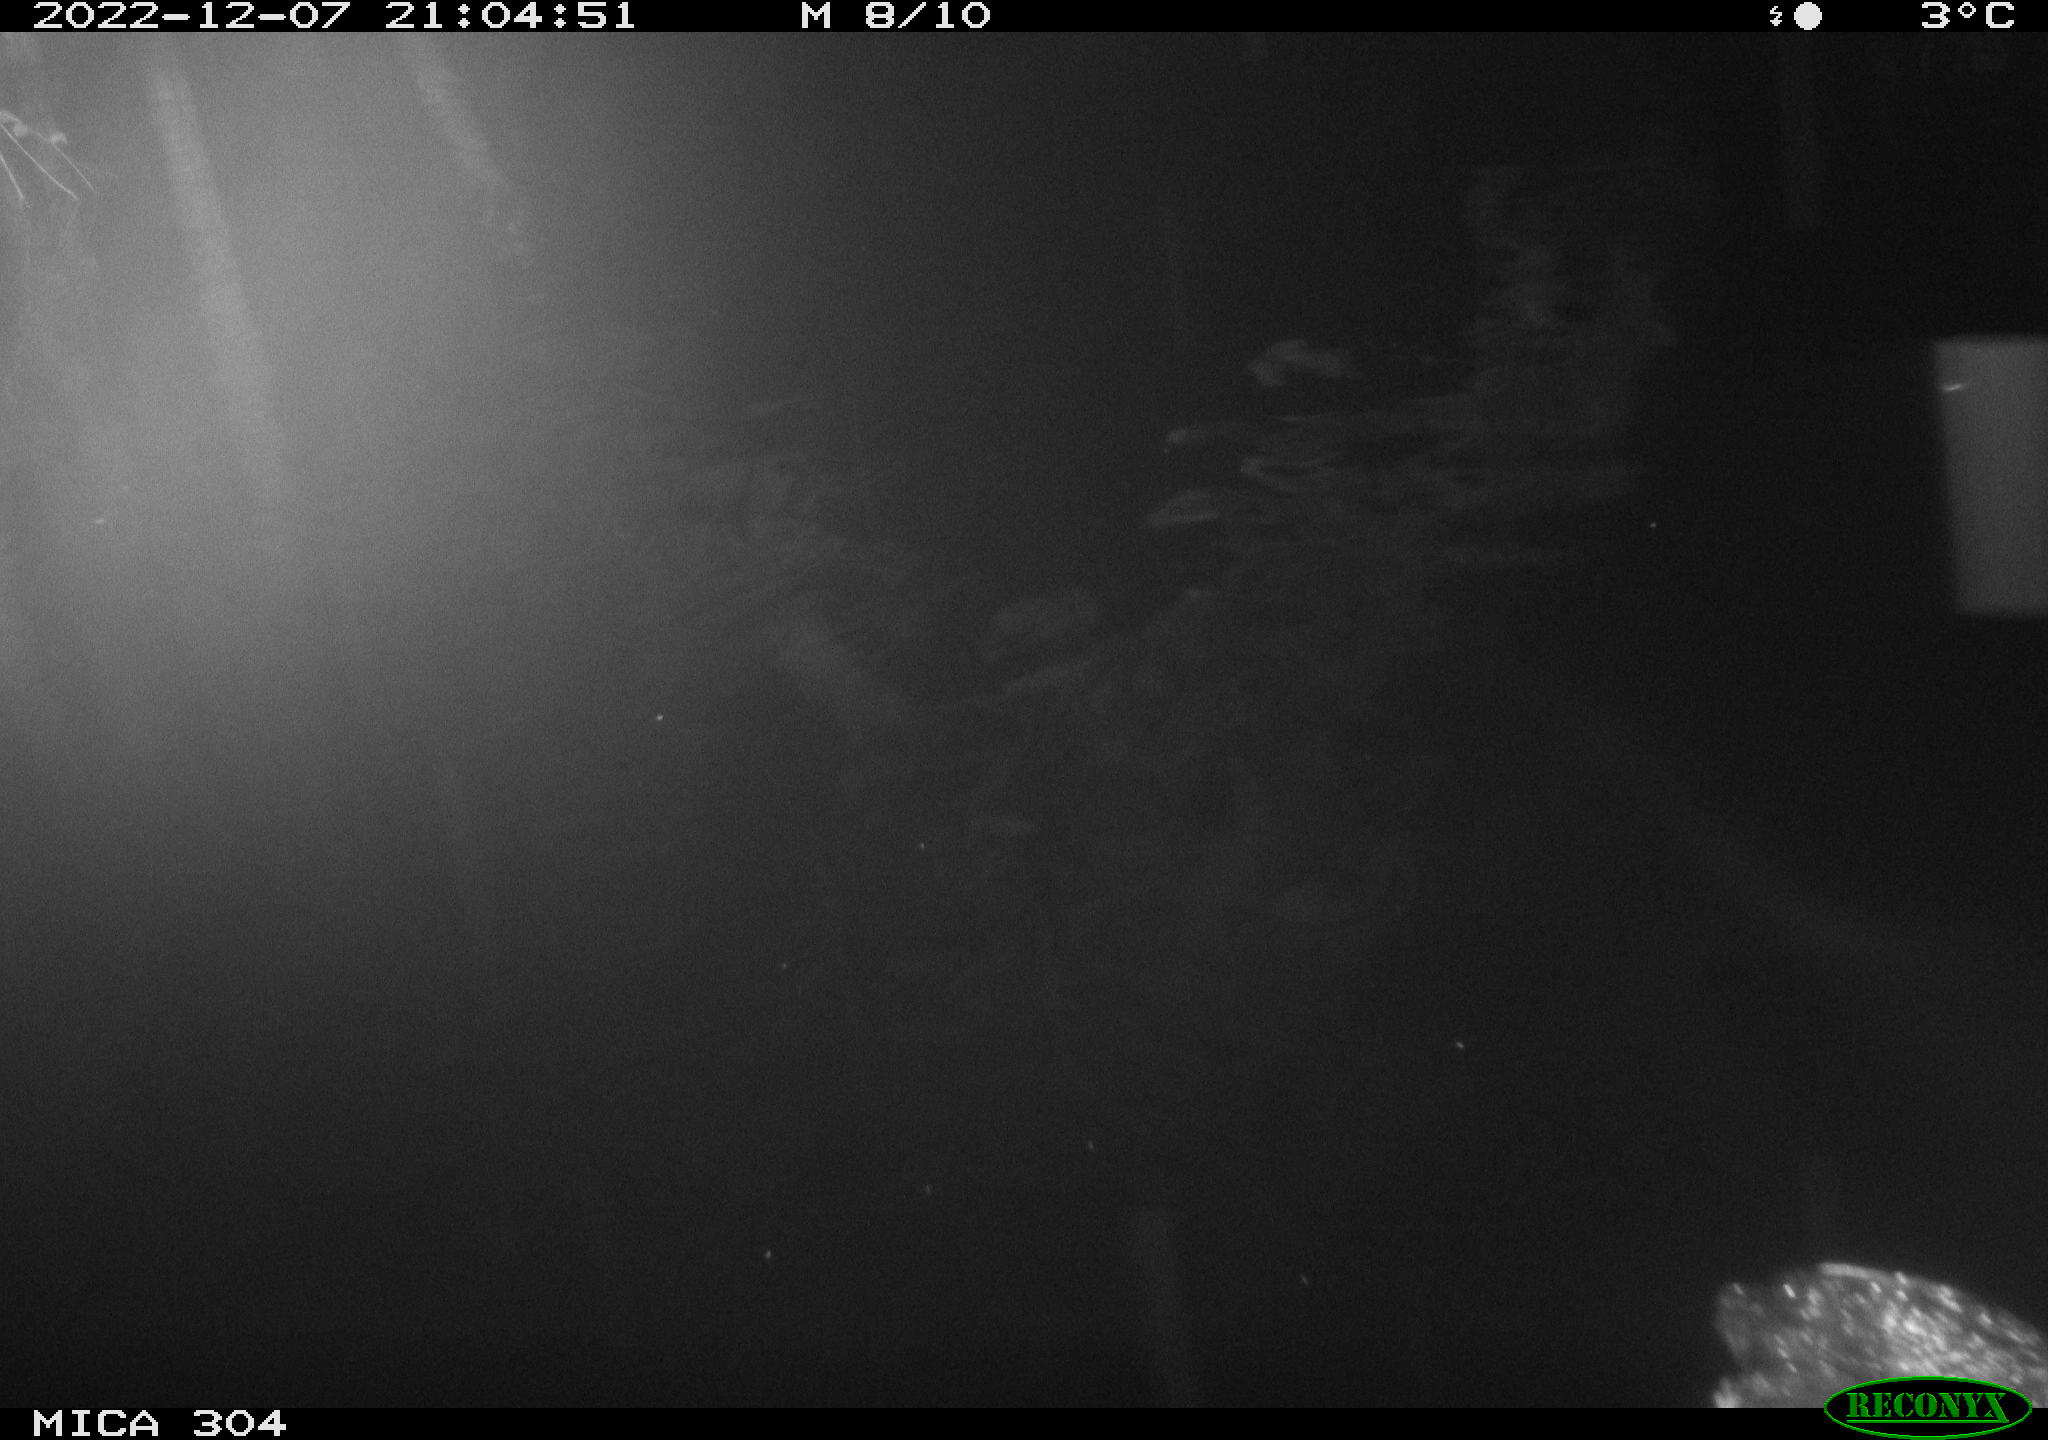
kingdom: Animalia
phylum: Chordata
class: Aves
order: Anseriformes
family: Anatidae
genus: Anas
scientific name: Anas
